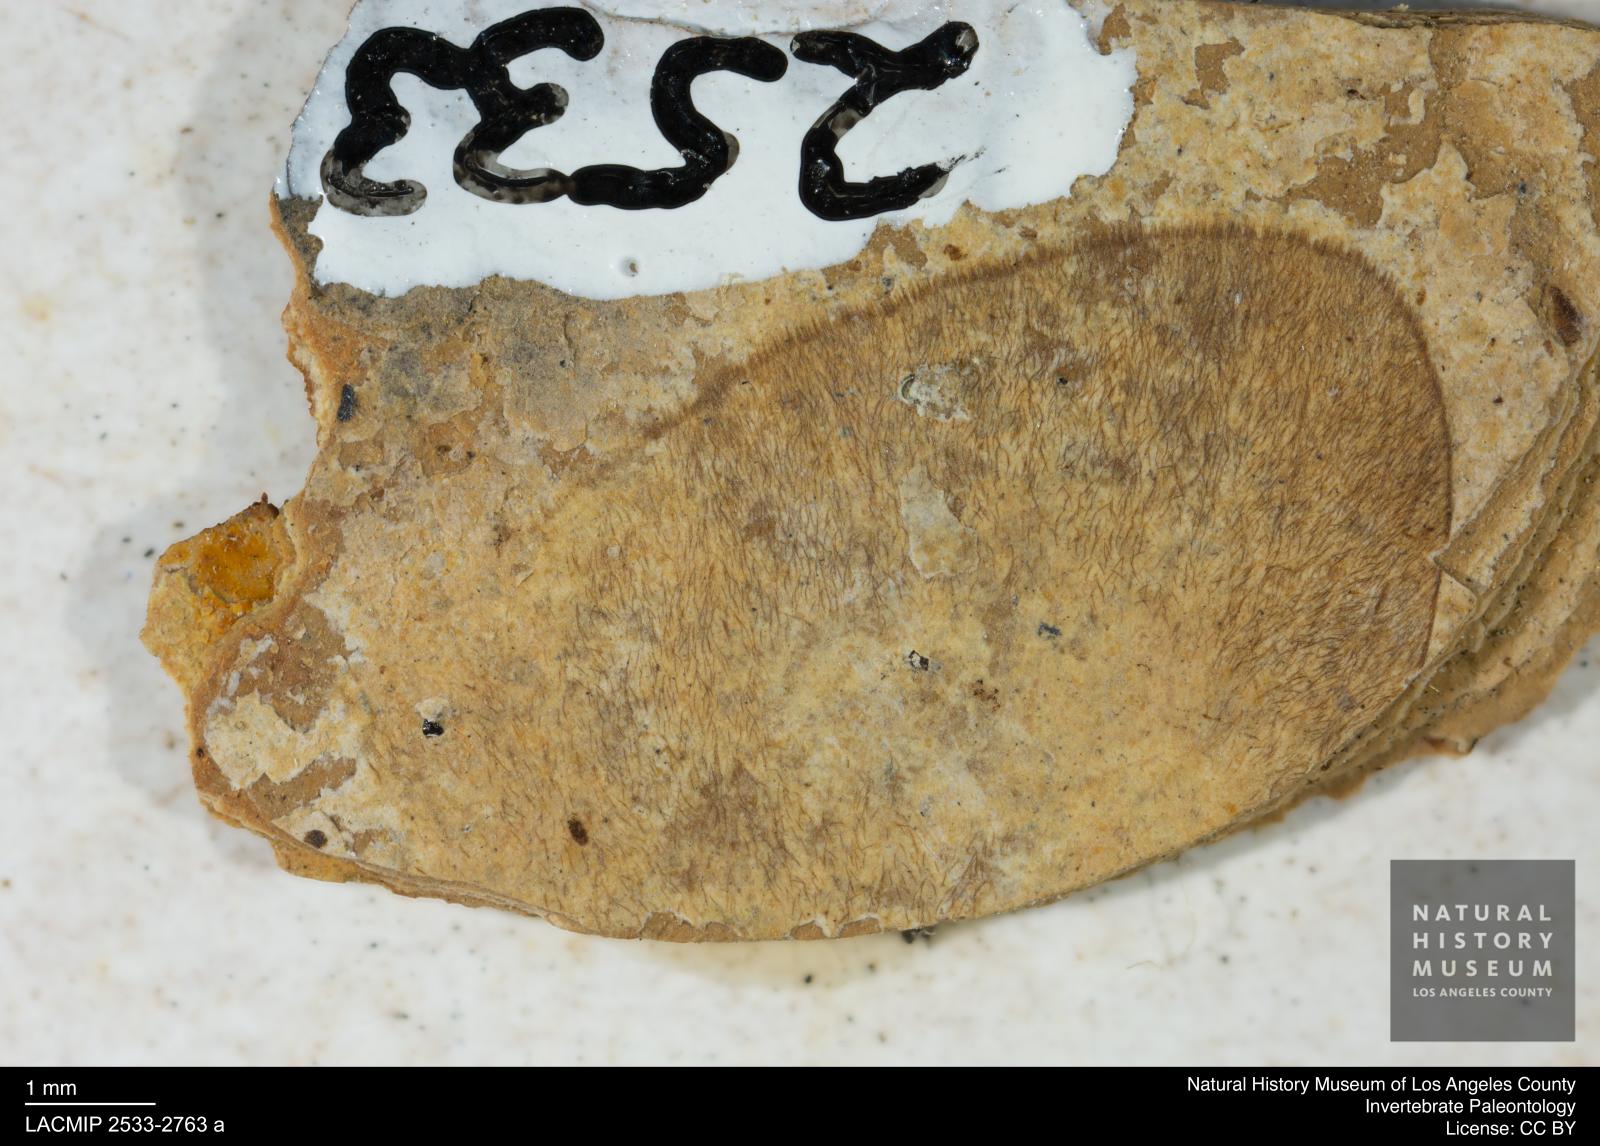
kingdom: Animalia
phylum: Arthropoda
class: Insecta
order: Lepidoptera
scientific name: Lepidoptera
